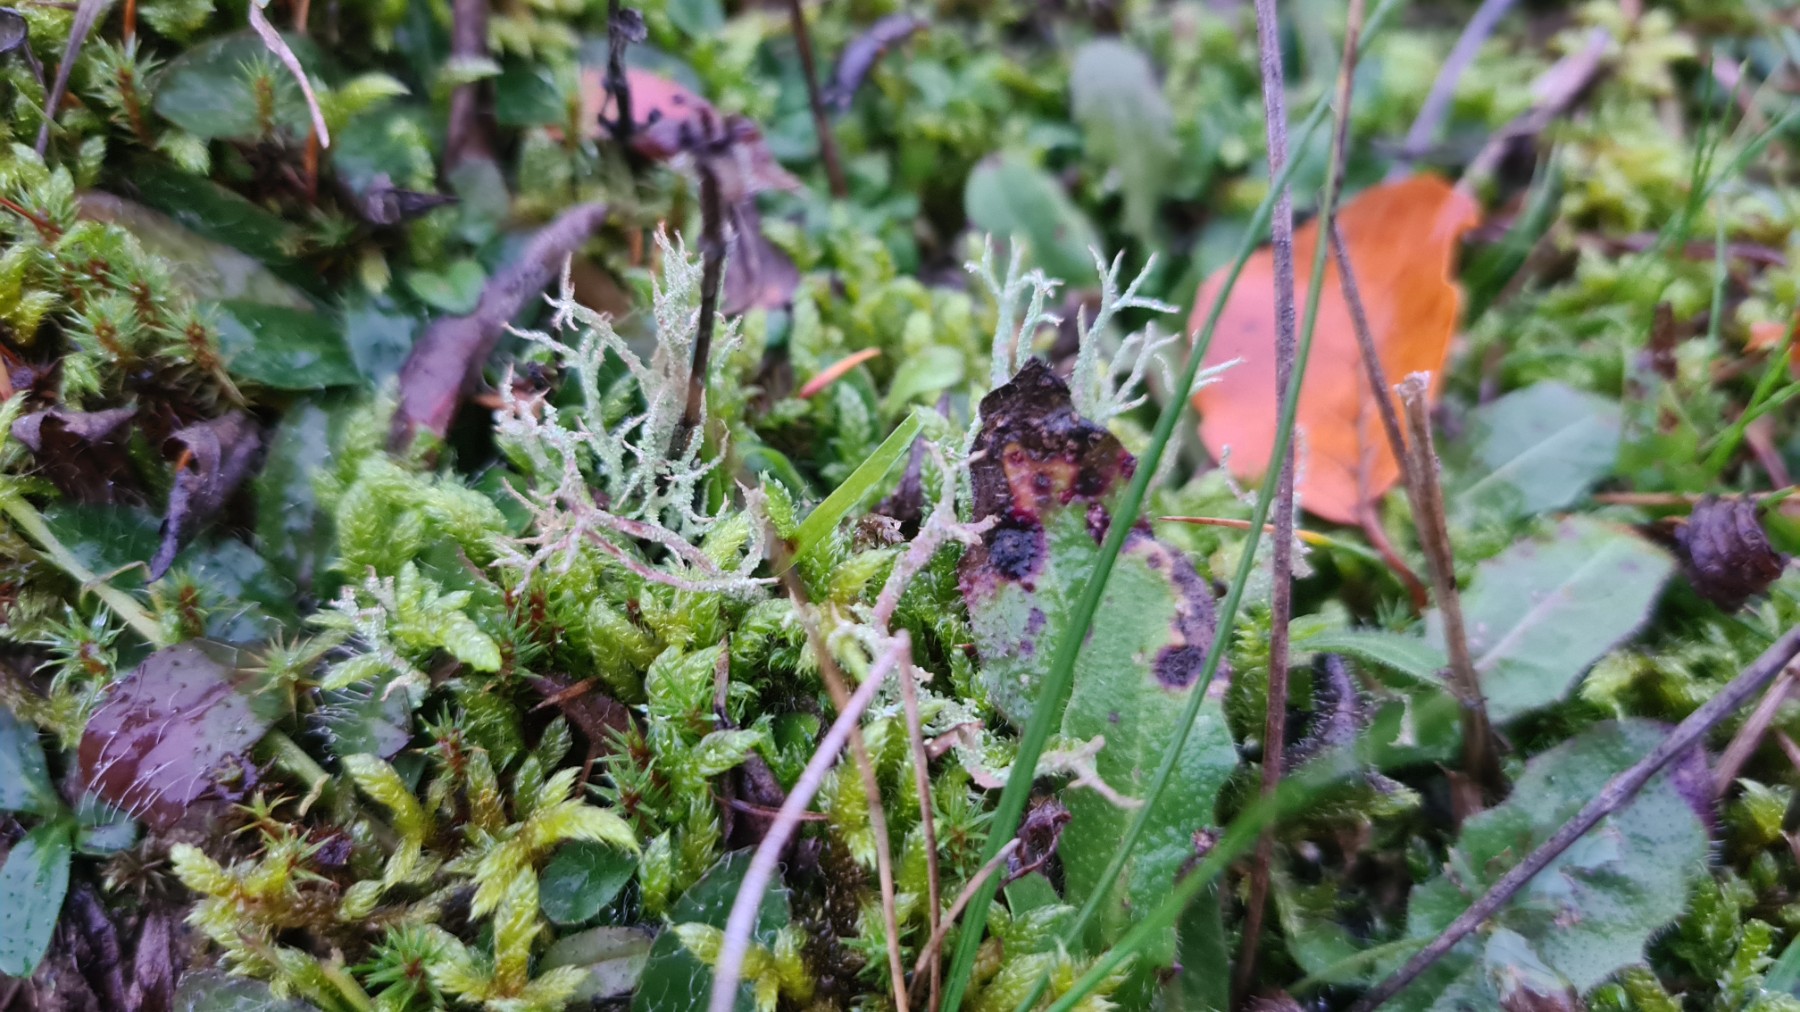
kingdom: Fungi
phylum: Ascomycota
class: Lecanoromycetes
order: Lecanorales
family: Cladoniaceae
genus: Cladonia
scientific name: Cladonia scabriuscula
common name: ru bægerlav
